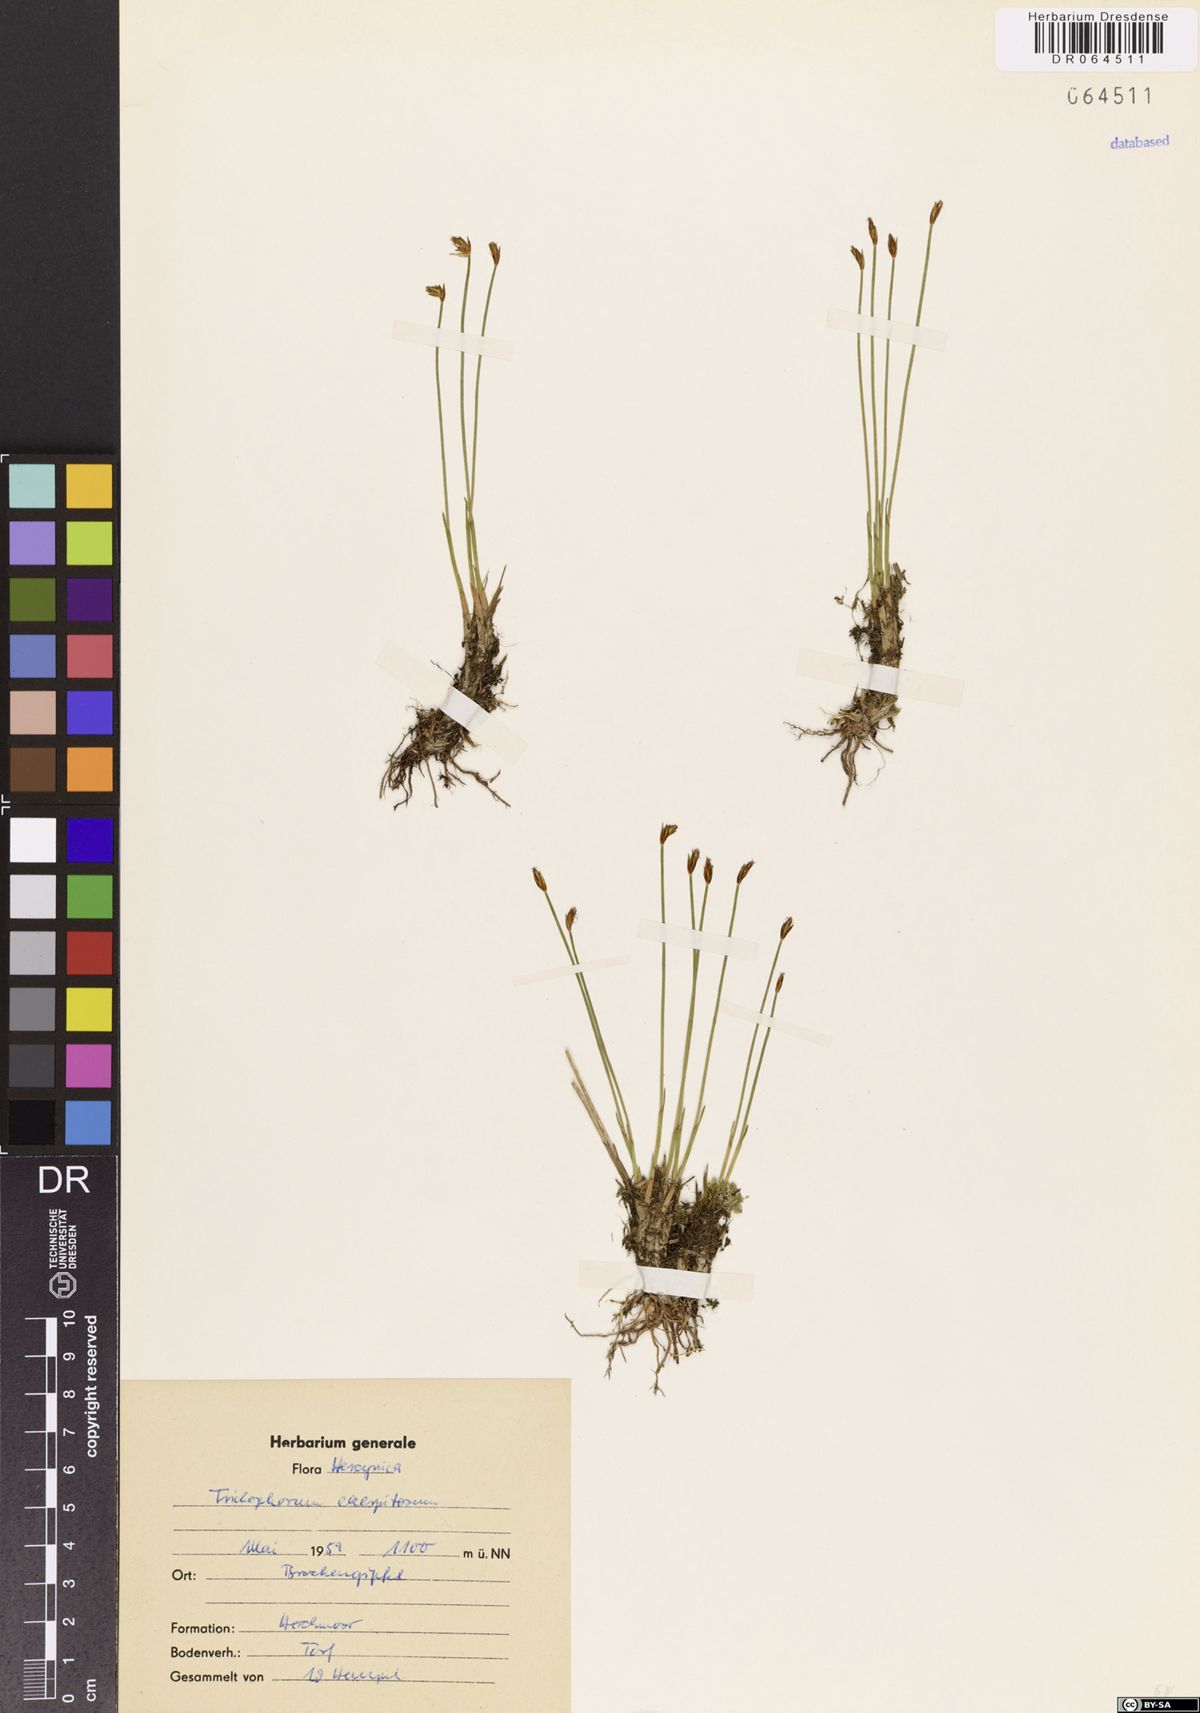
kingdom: Plantae
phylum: Tracheophyta
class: Liliopsida
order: Poales
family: Cyperaceae
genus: Trichophorum
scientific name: Trichophorum cespitosum
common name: Cespitose bulrush
